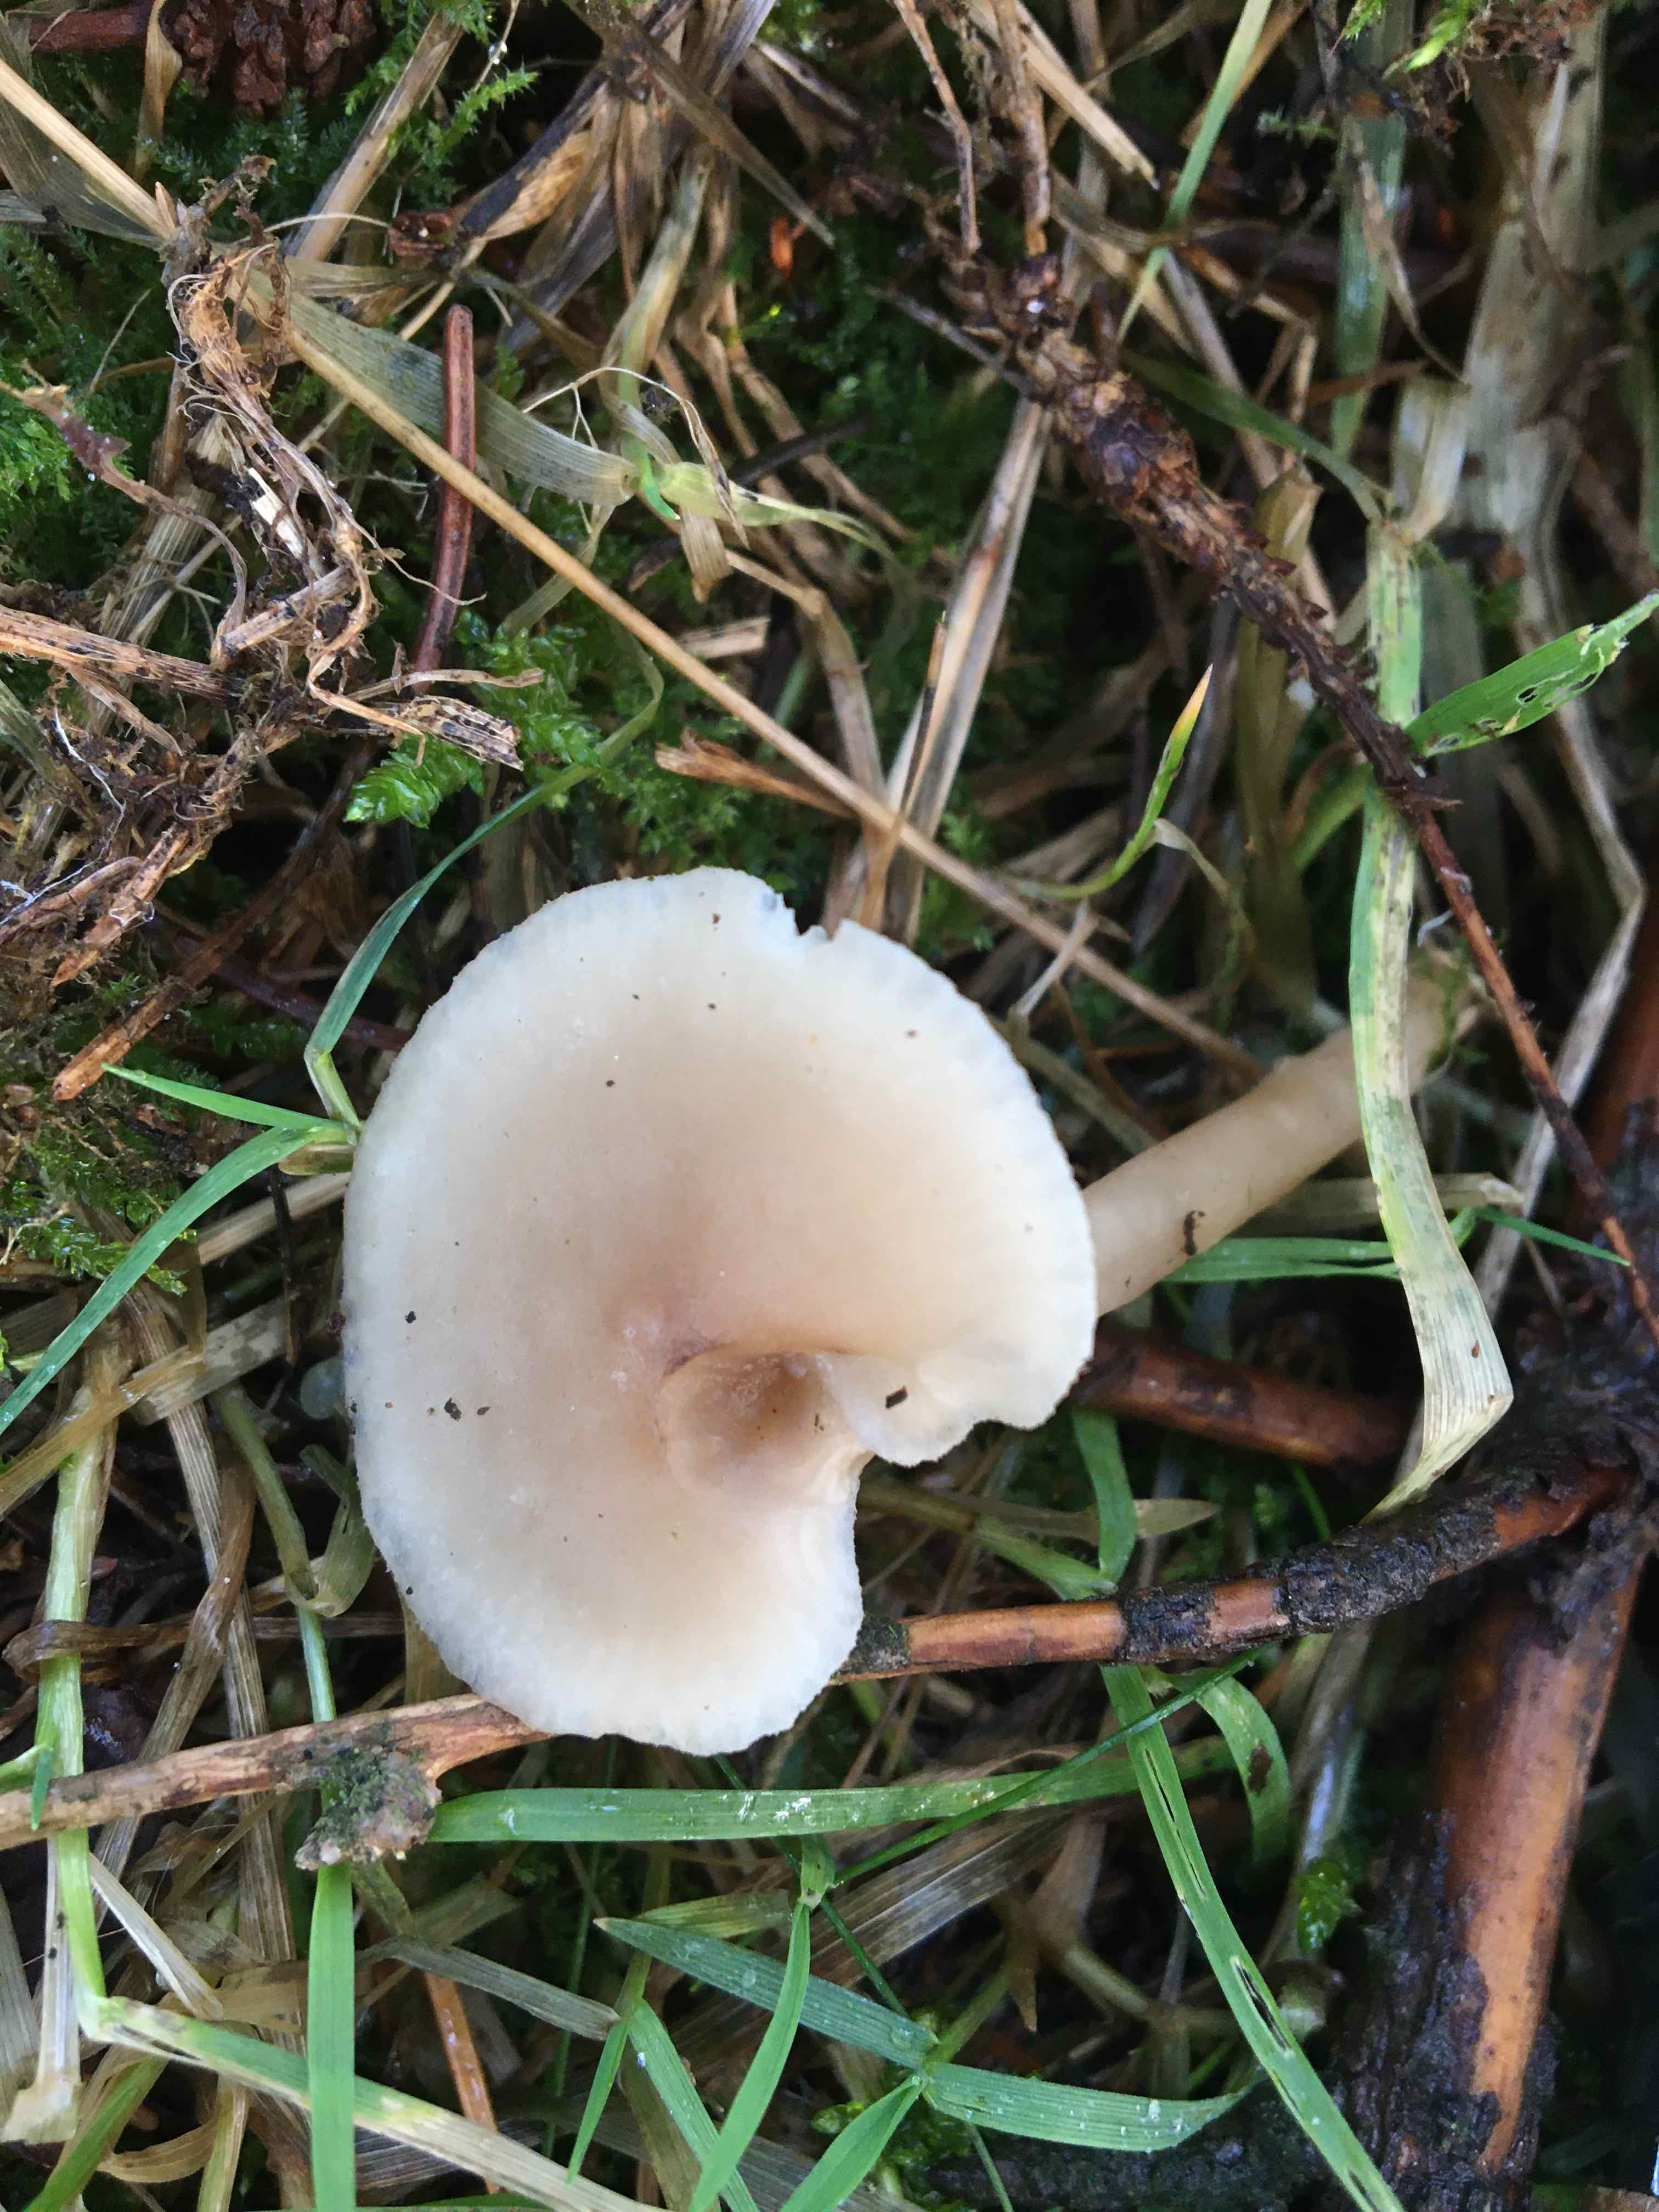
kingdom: Fungi
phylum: Basidiomycota
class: Agaricomycetes
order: Agaricales
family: Tricholomataceae
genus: Clitocybe
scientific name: Clitocybe fragrans
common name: vellugtende tragthat
